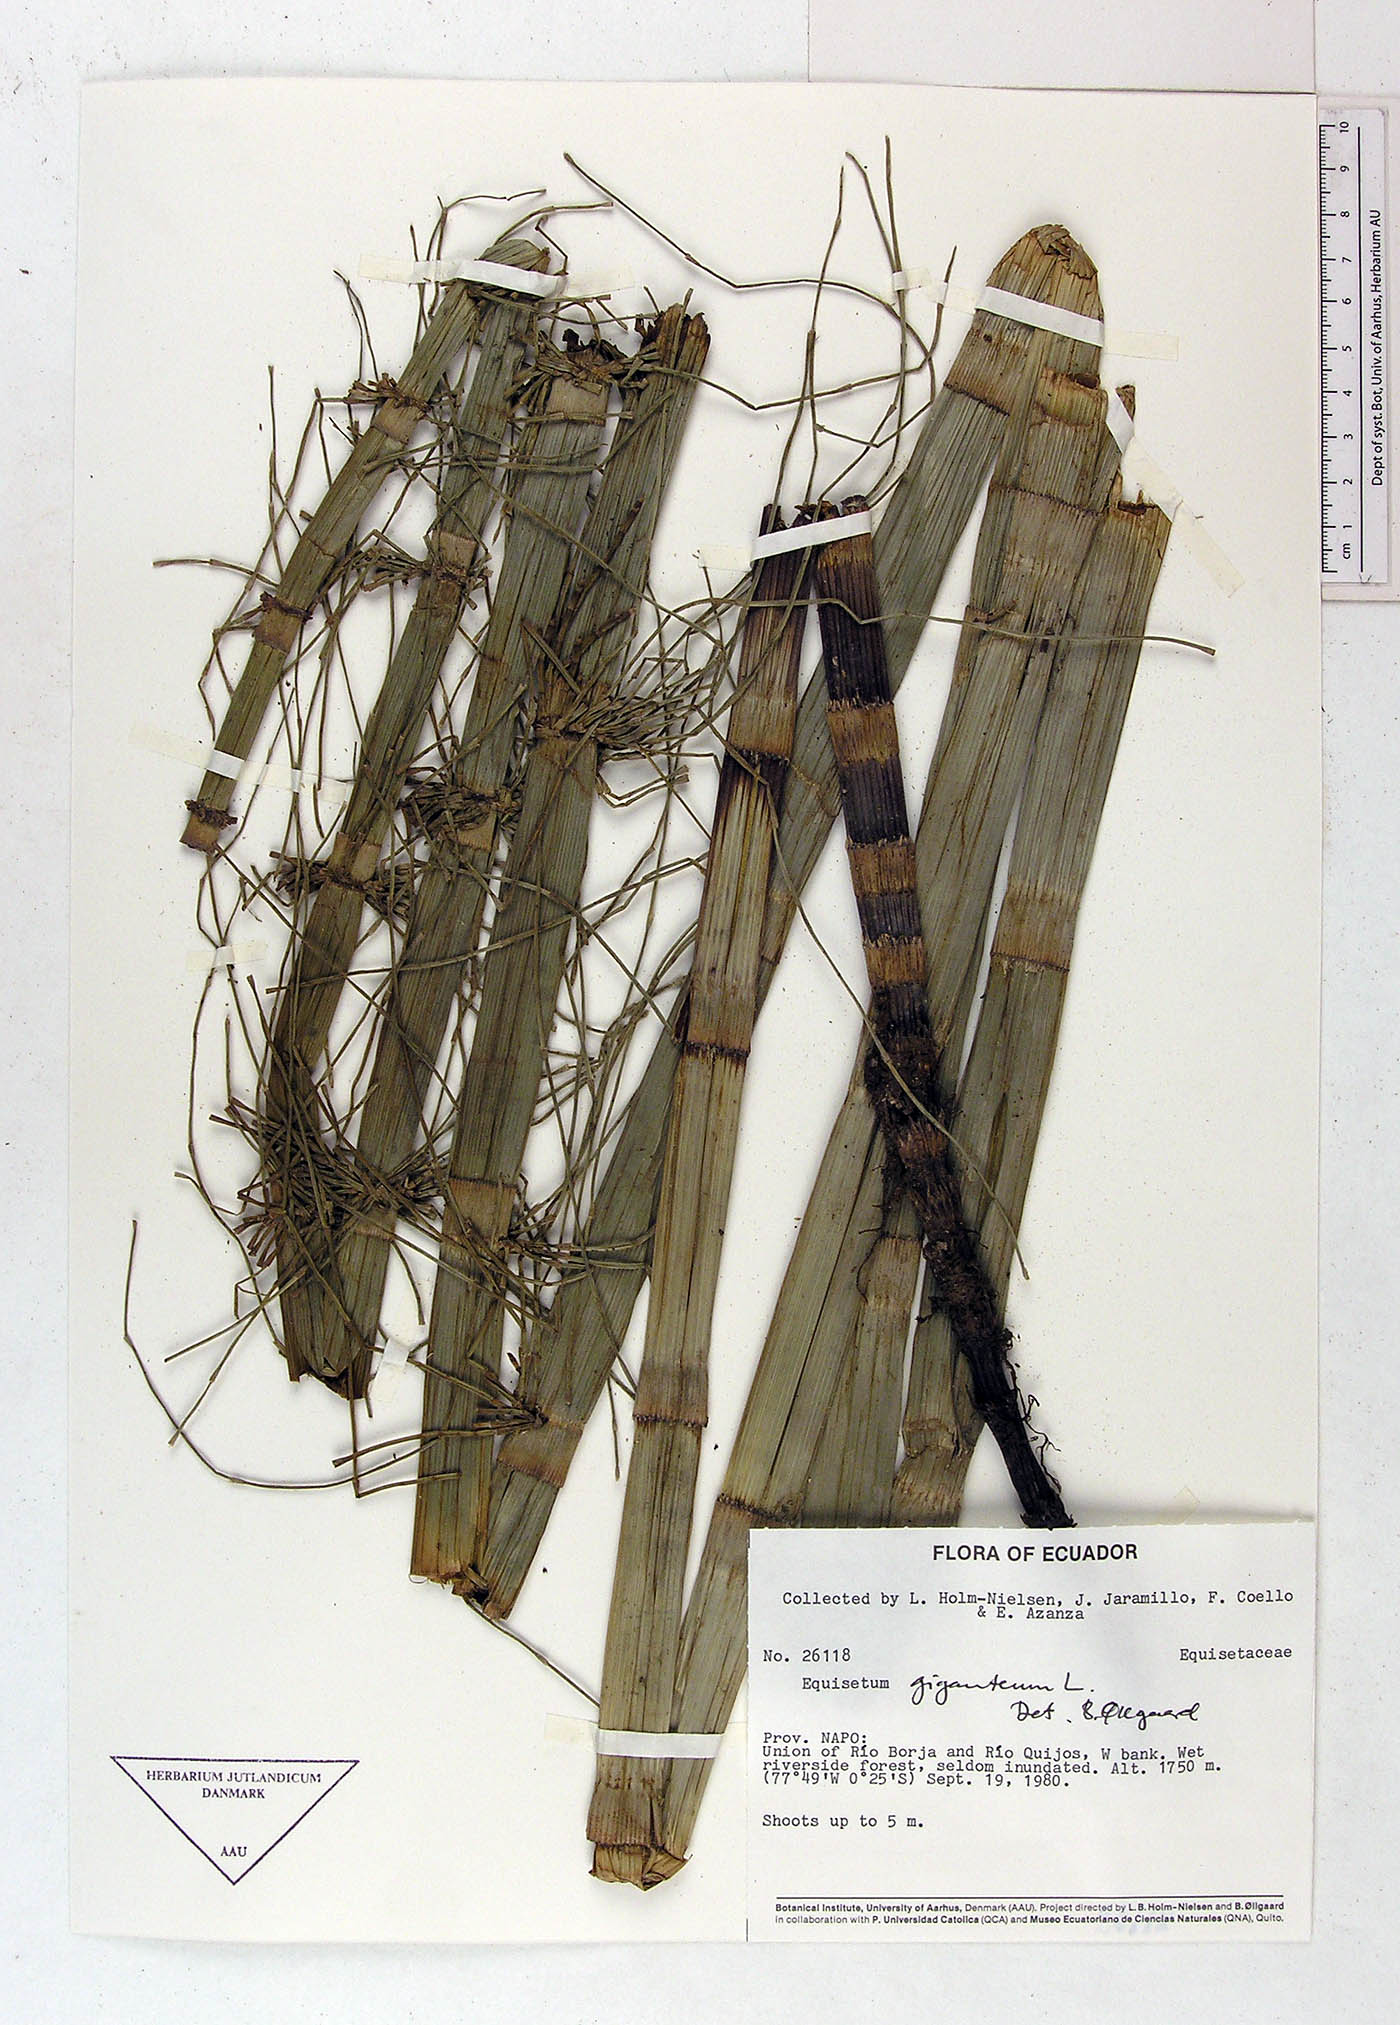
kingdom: Plantae
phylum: Tracheophyta
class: Magnoliopsida
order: Ericales
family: Actinidiaceae
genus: Saurauia
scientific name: Saurauia crassisepala
